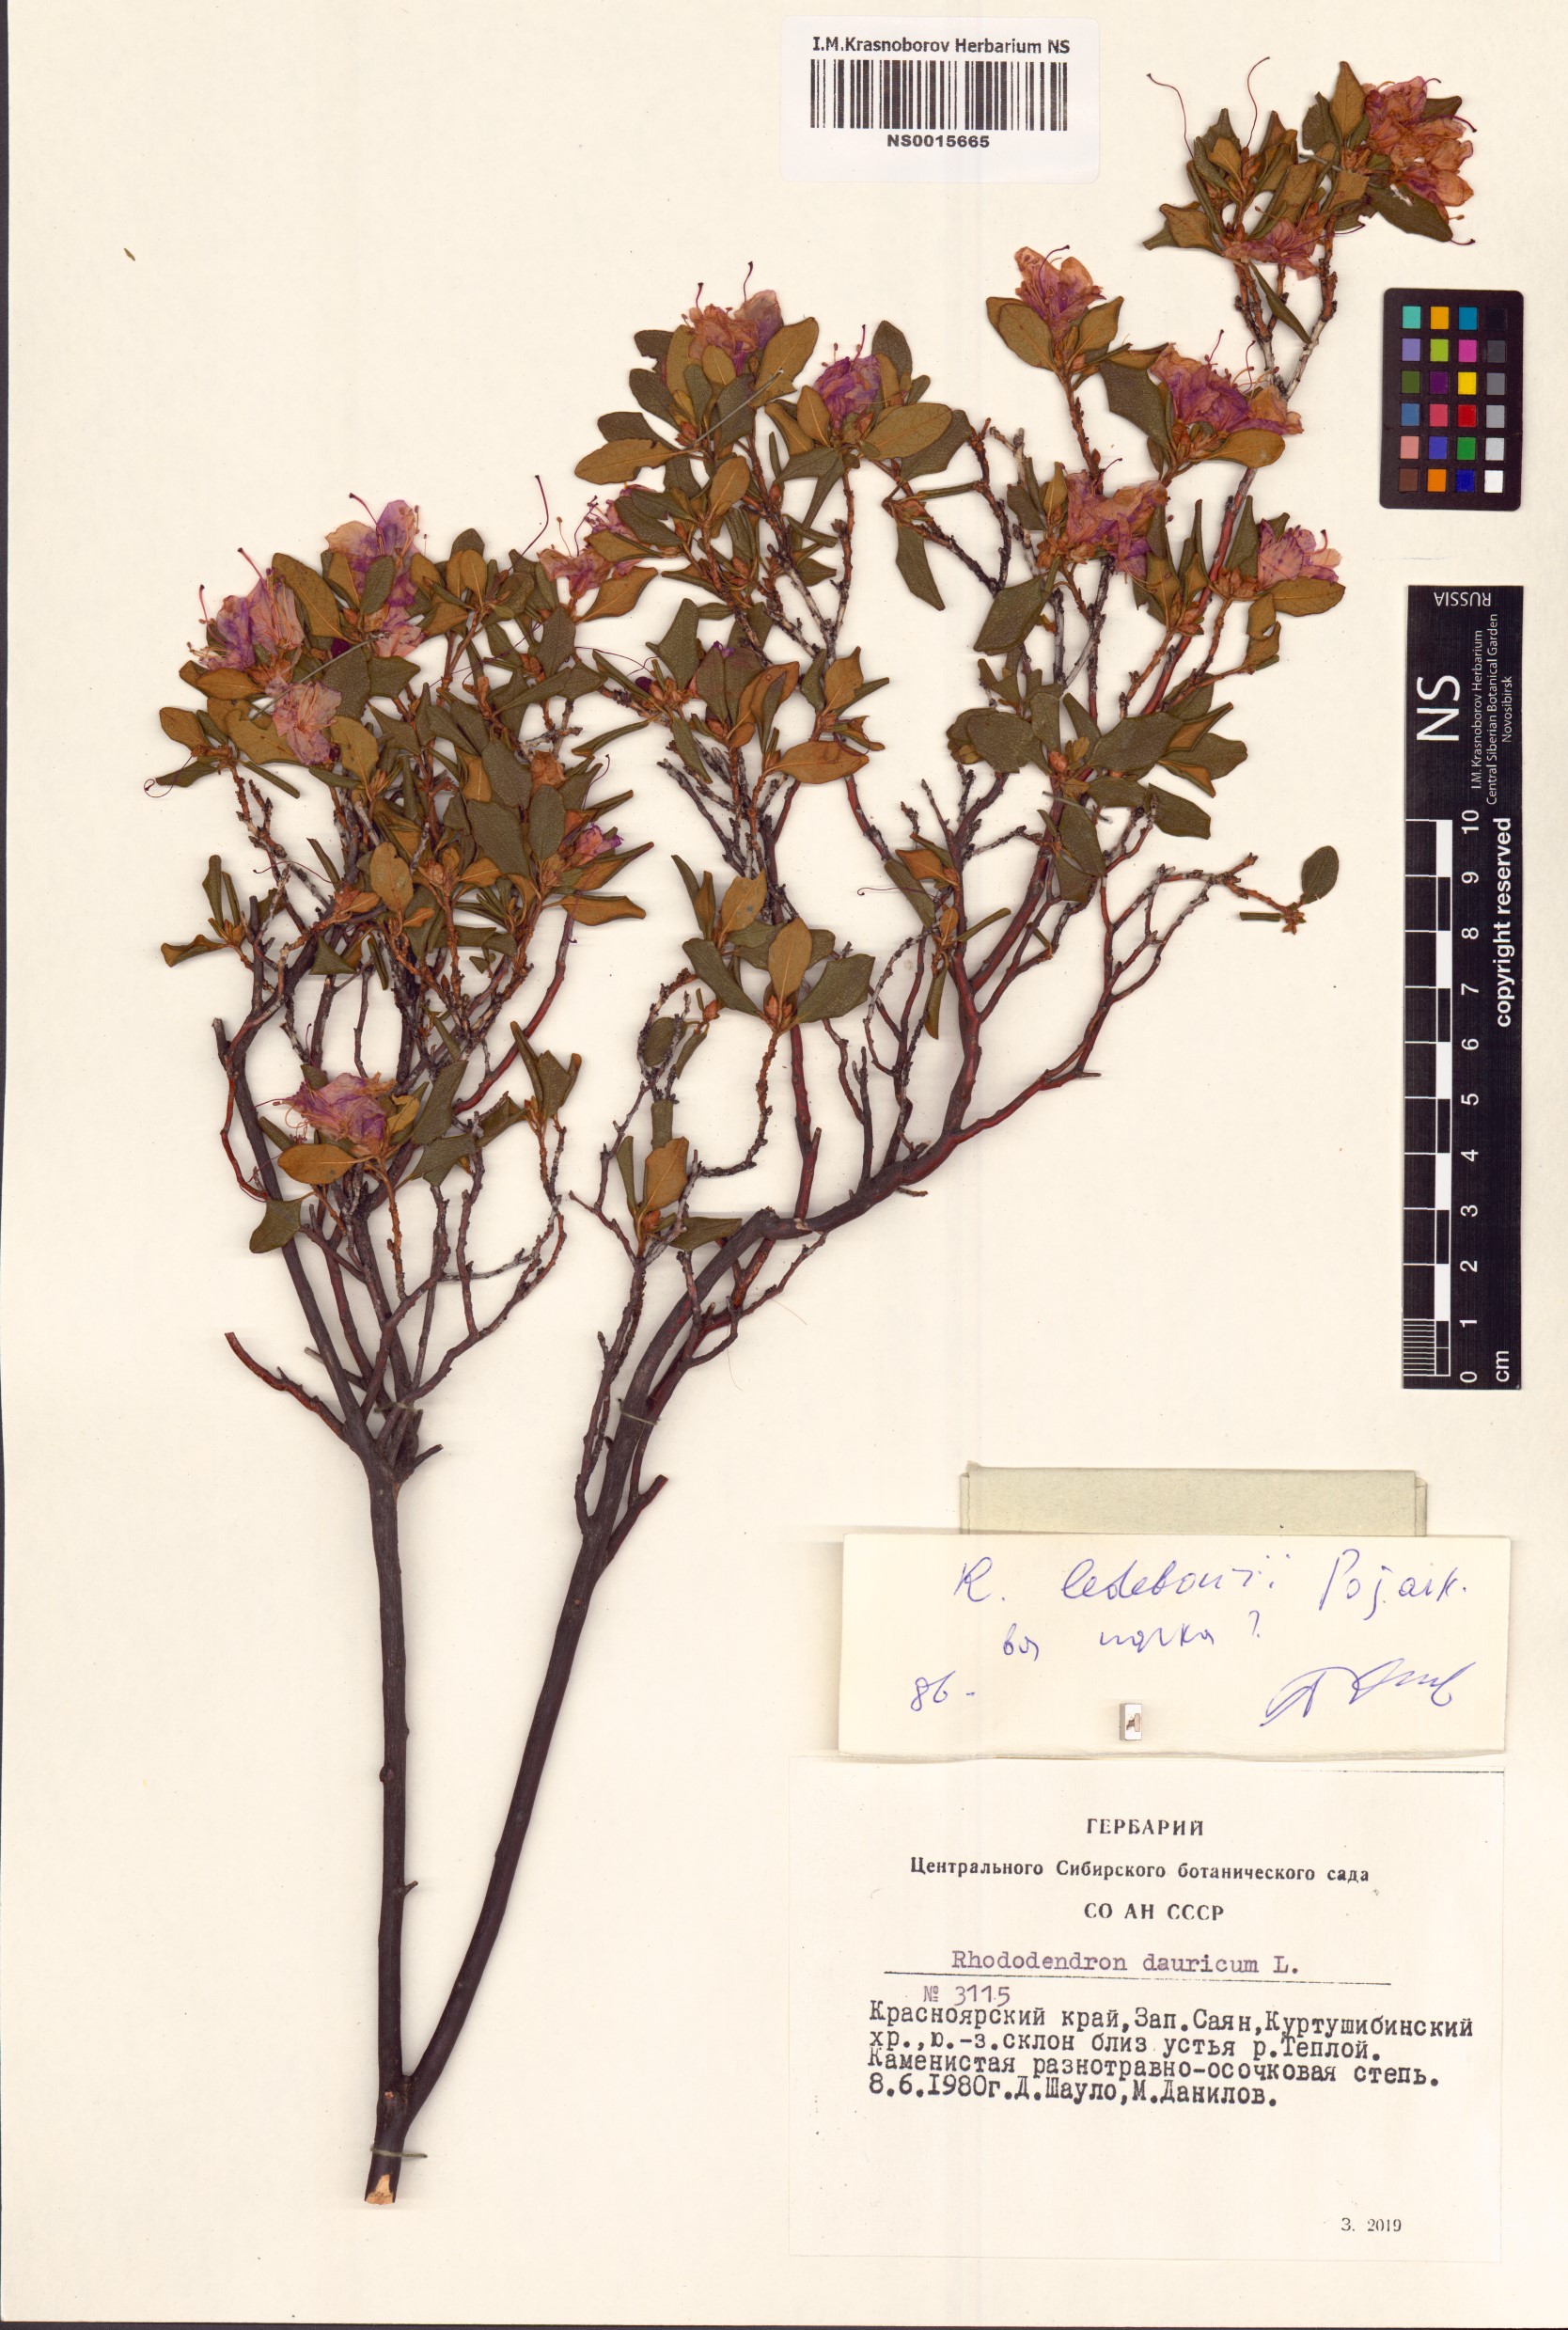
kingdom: Plantae
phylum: Tracheophyta
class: Magnoliopsida
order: Ericales
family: Ericaceae
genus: Rhododendron
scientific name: Rhododendron dauricum
